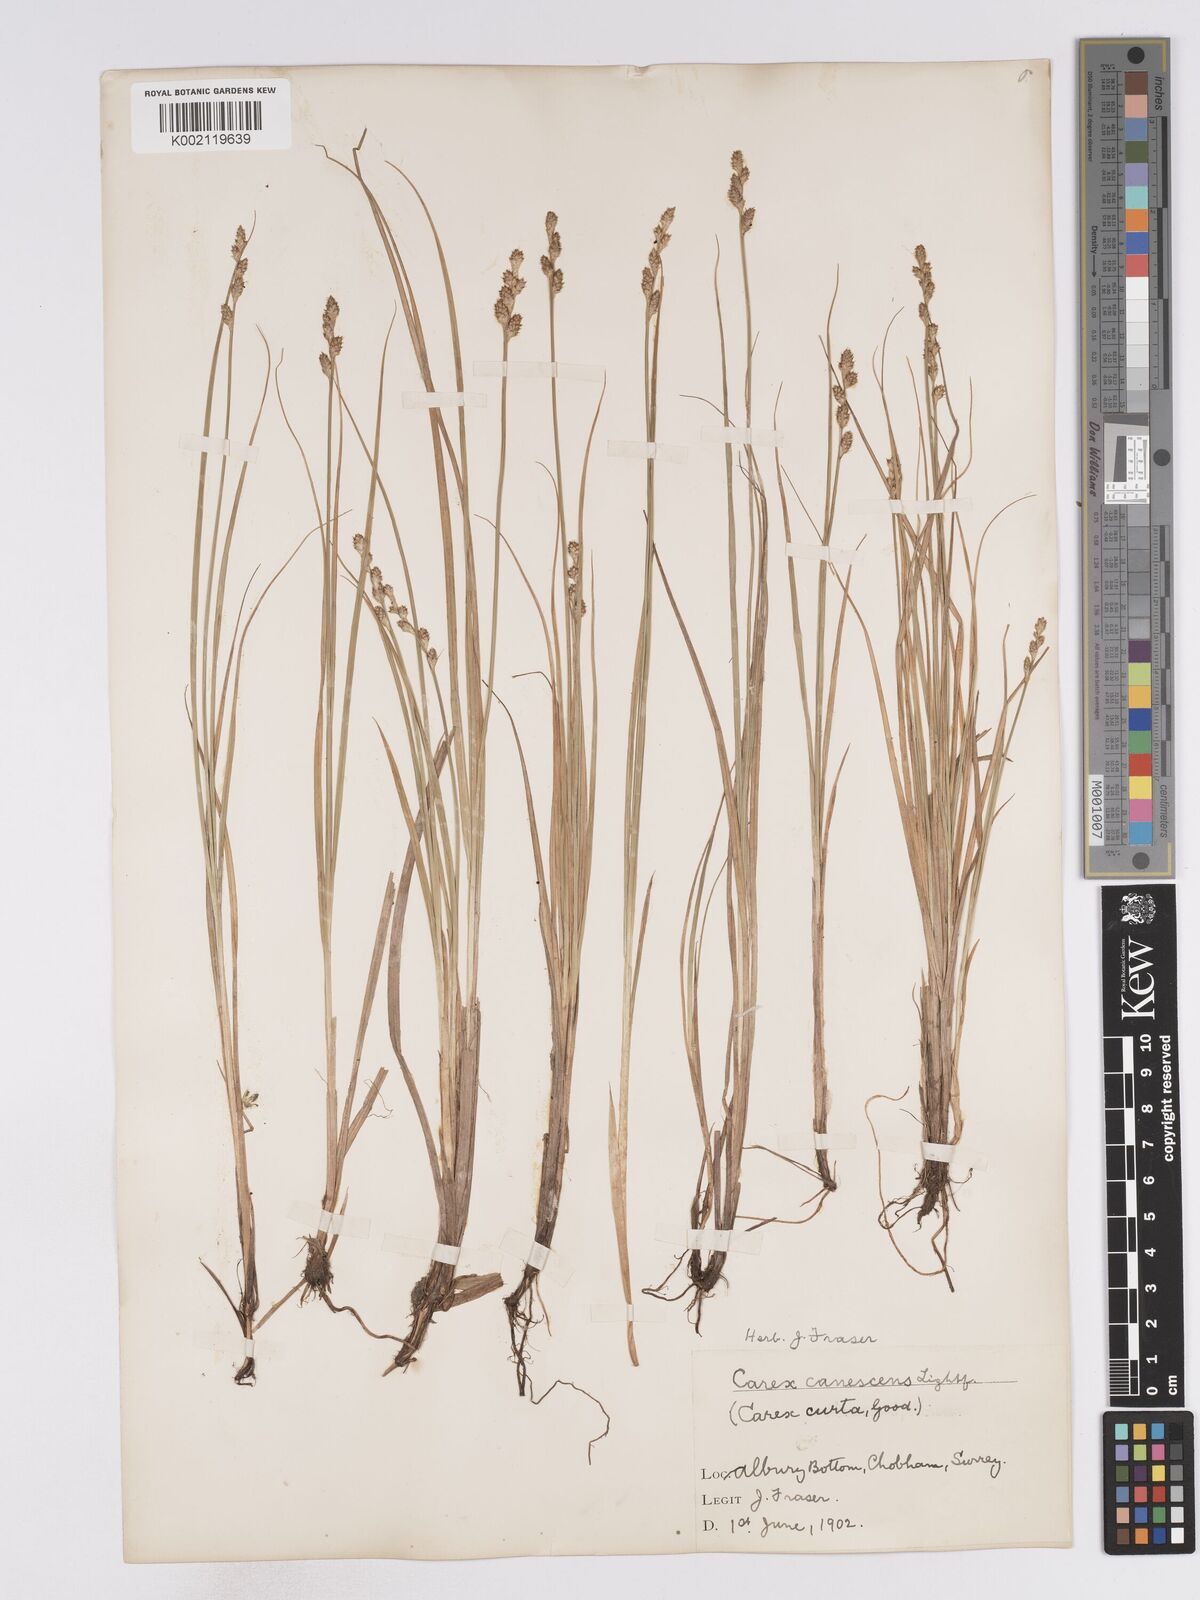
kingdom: Plantae
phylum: Tracheophyta
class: Liliopsida
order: Poales
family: Cyperaceae
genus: Carex
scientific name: Carex curta
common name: White sedge
